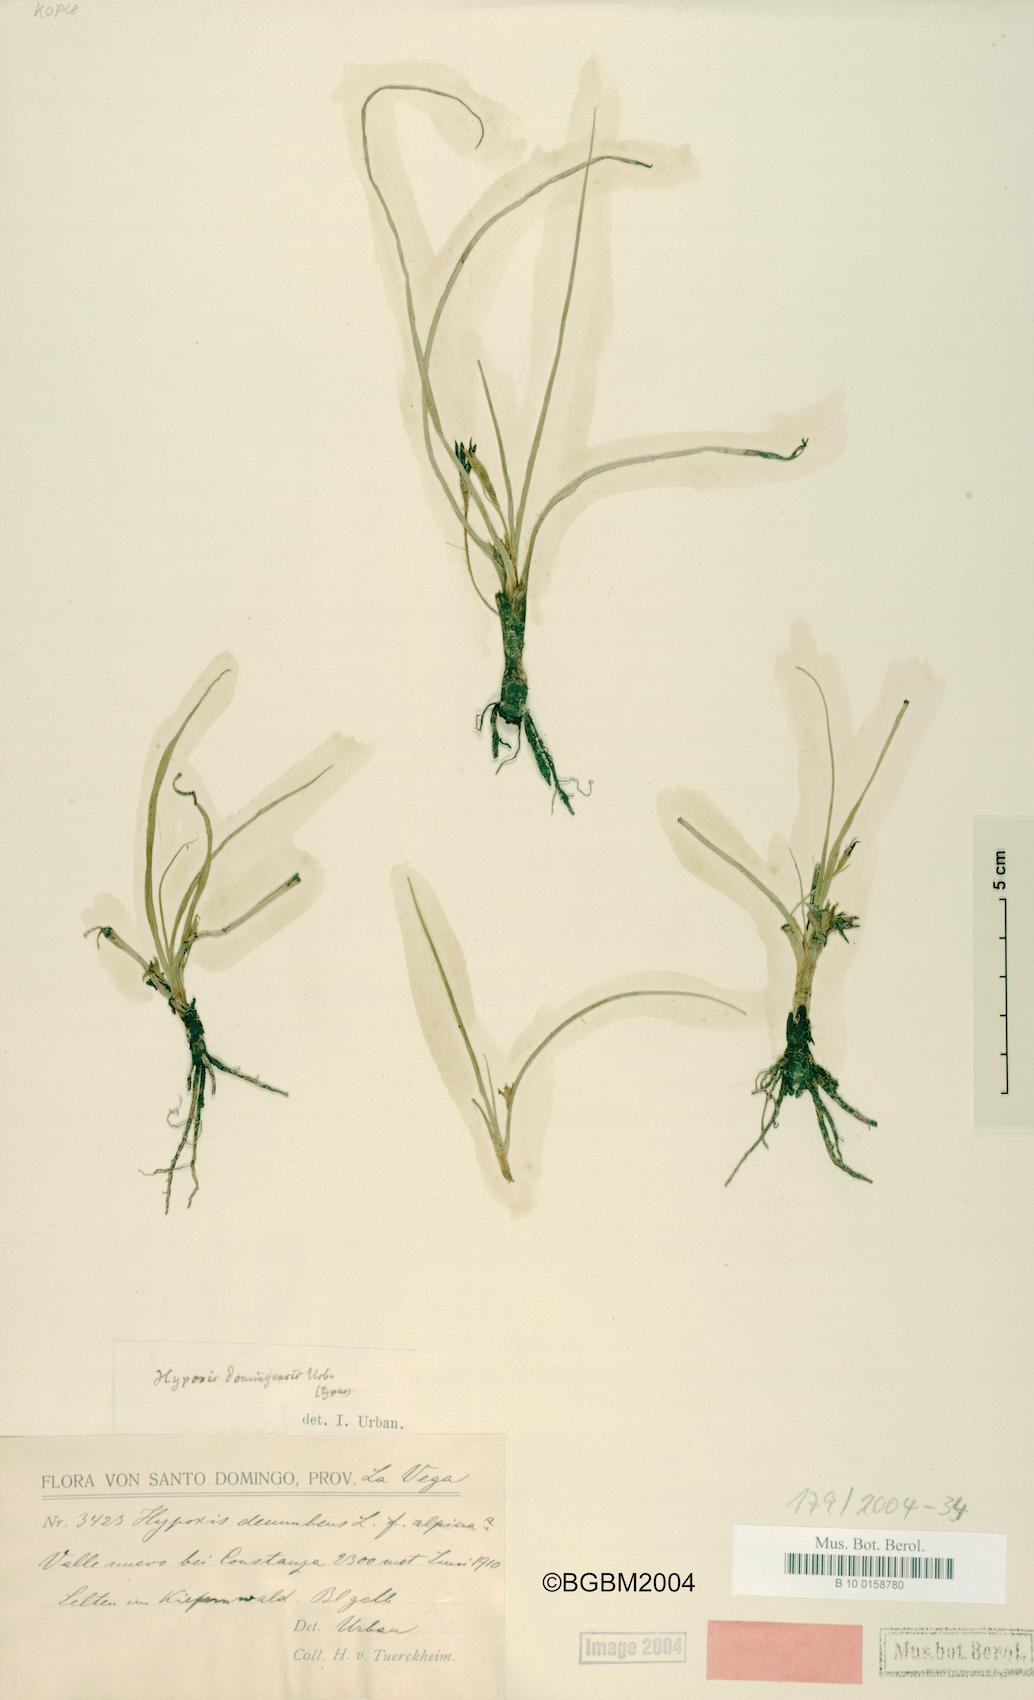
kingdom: Plantae
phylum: Tracheophyta
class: Liliopsida
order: Asparagales
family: Hypoxidaceae
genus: Hypoxis
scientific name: Hypoxis domingensis
